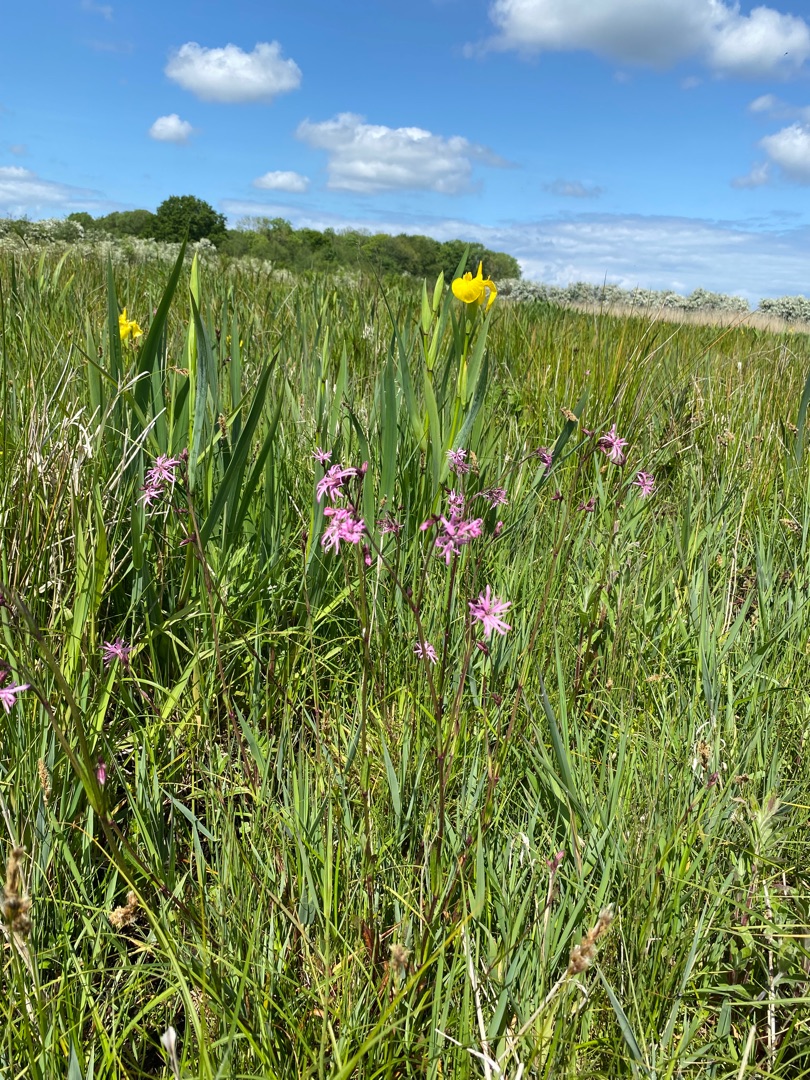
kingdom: Plantae
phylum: Tracheophyta
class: Magnoliopsida
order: Caryophyllales
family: Caryophyllaceae
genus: Silene
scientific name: Silene flos-cuculi
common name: Trævlekrone
